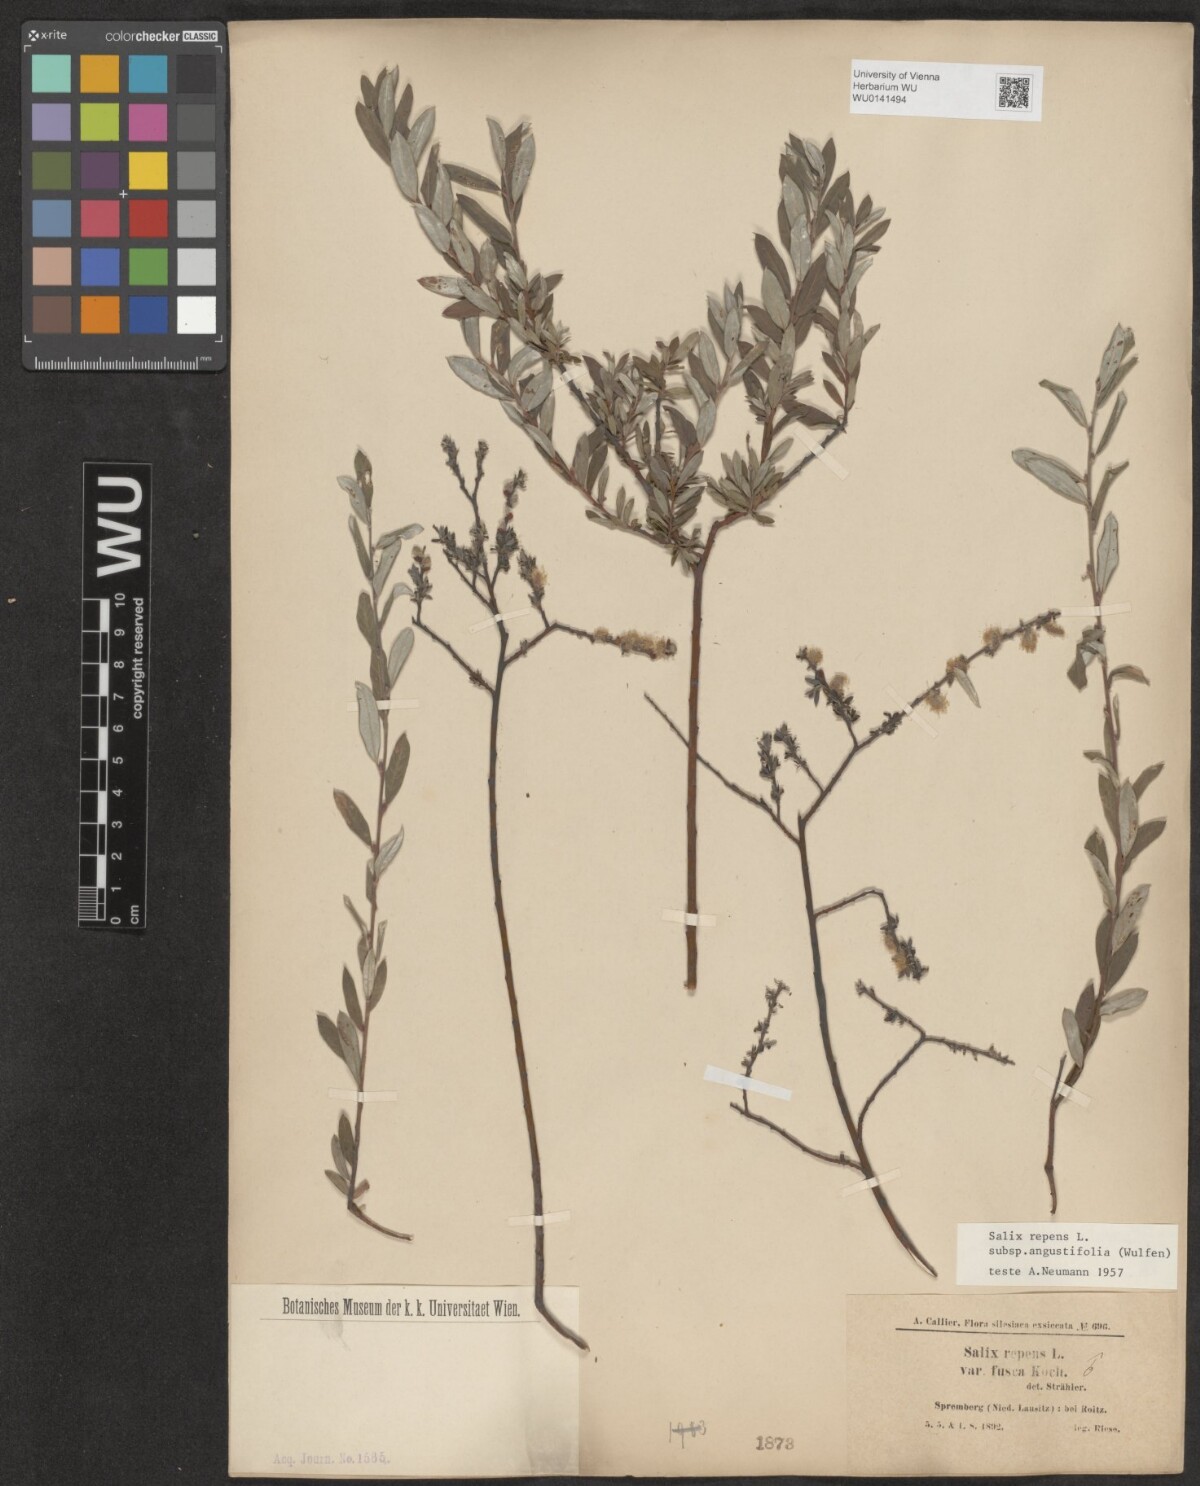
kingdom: Plantae
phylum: Tracheophyta
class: Magnoliopsida
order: Malpighiales
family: Salicaceae
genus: Salix
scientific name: Salix rosmarinifolia
